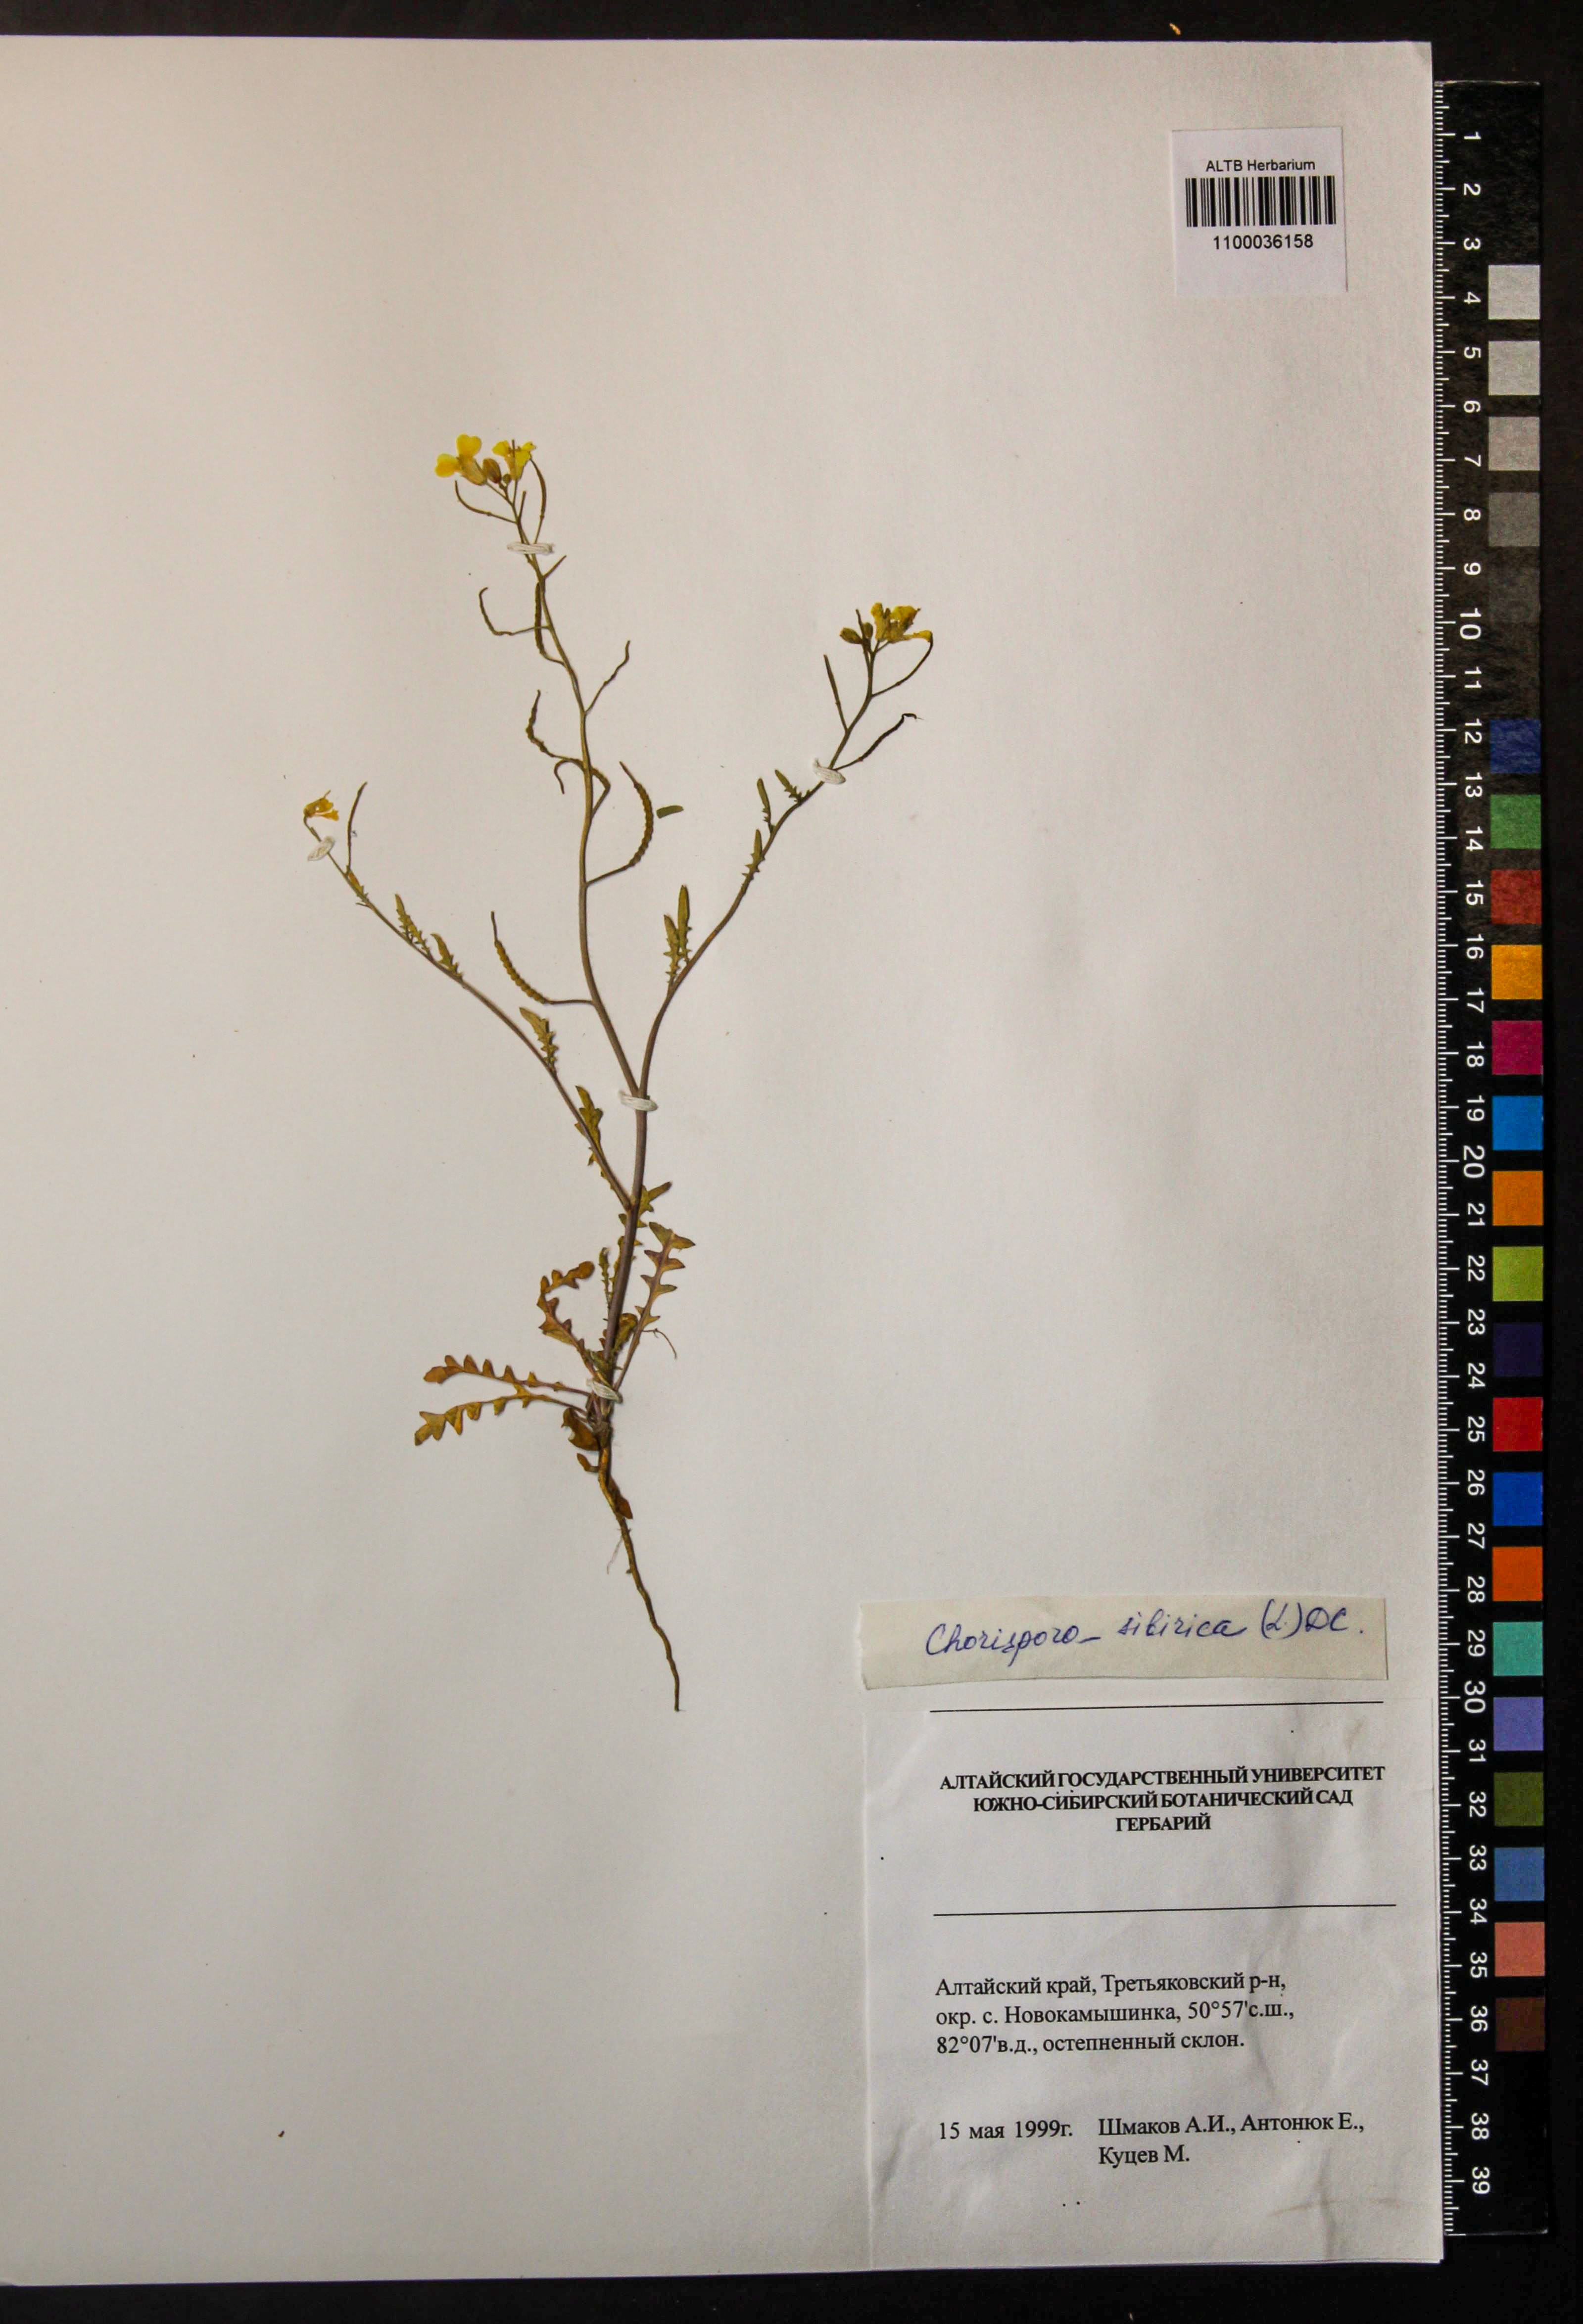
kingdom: Plantae
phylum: Tracheophyta
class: Magnoliopsida
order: Brassicales
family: Brassicaceae
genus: Chorispora
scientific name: Chorispora sibirica
